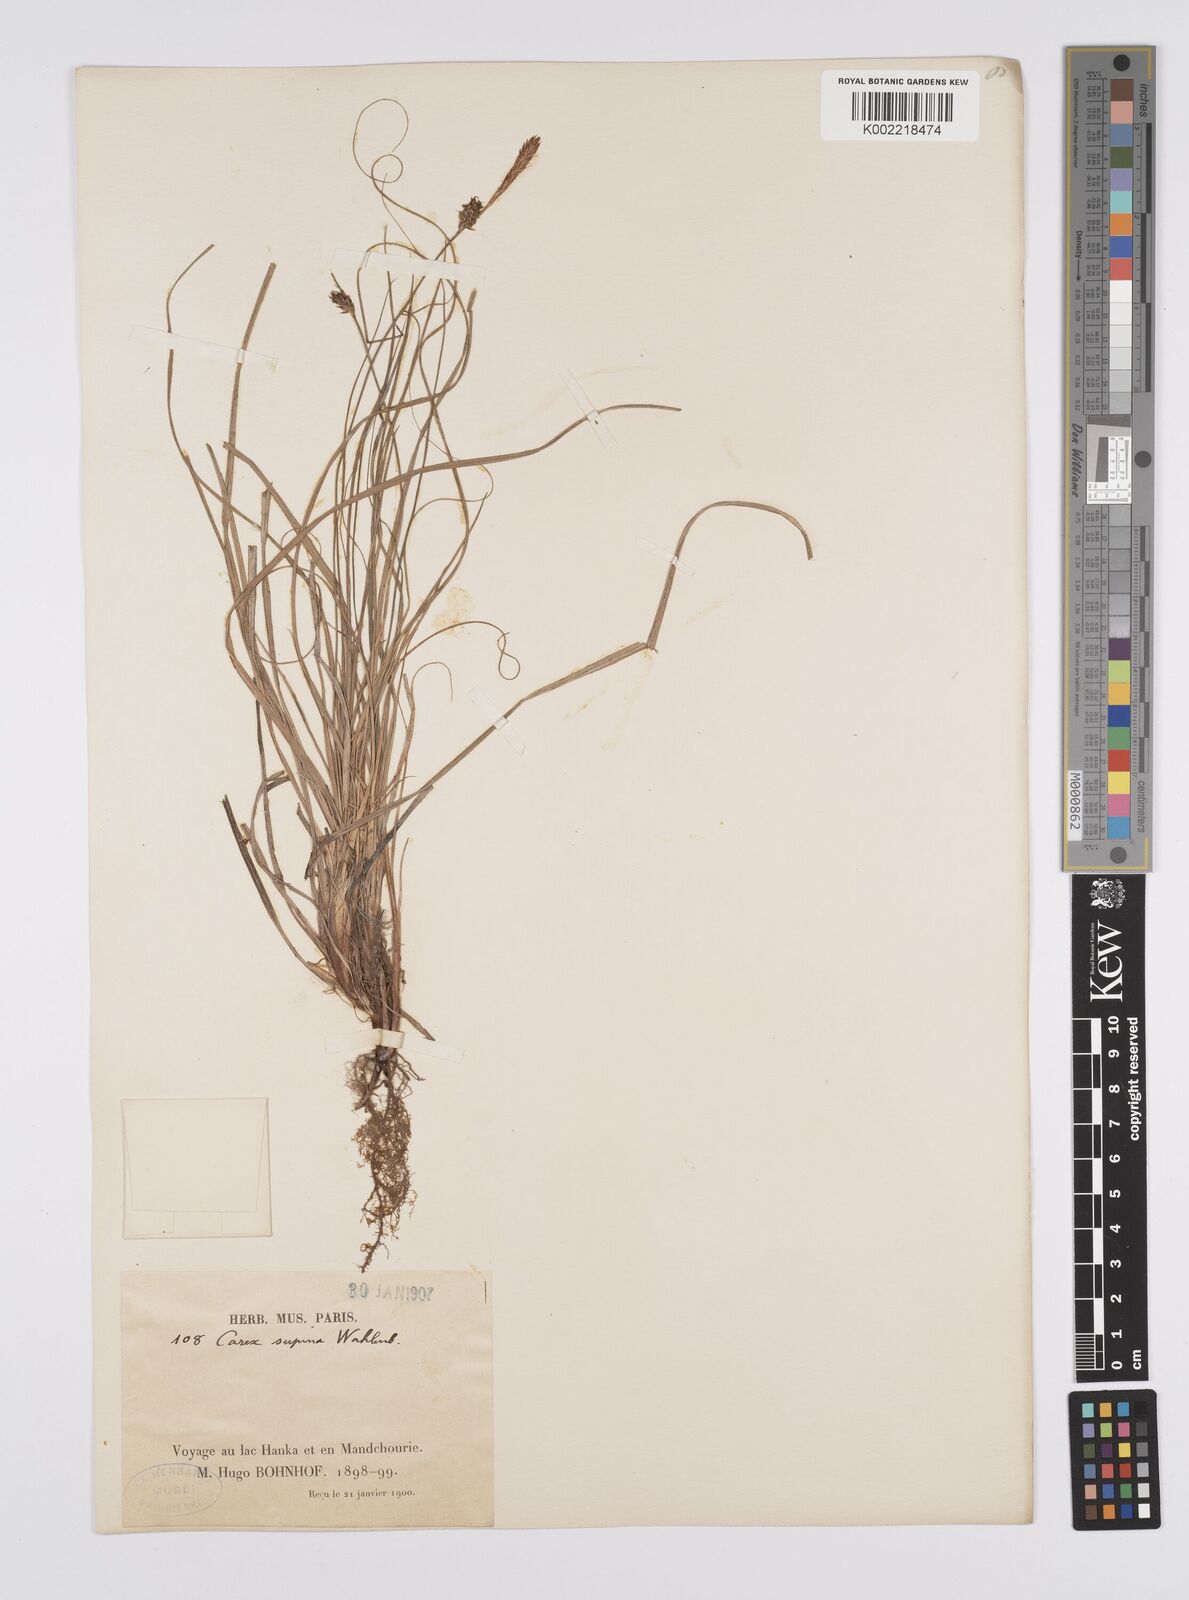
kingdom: Plantae
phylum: Tracheophyta
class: Liliopsida
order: Poales
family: Cyperaceae
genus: Carex
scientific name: Carex supina
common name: Lying-back sedge
